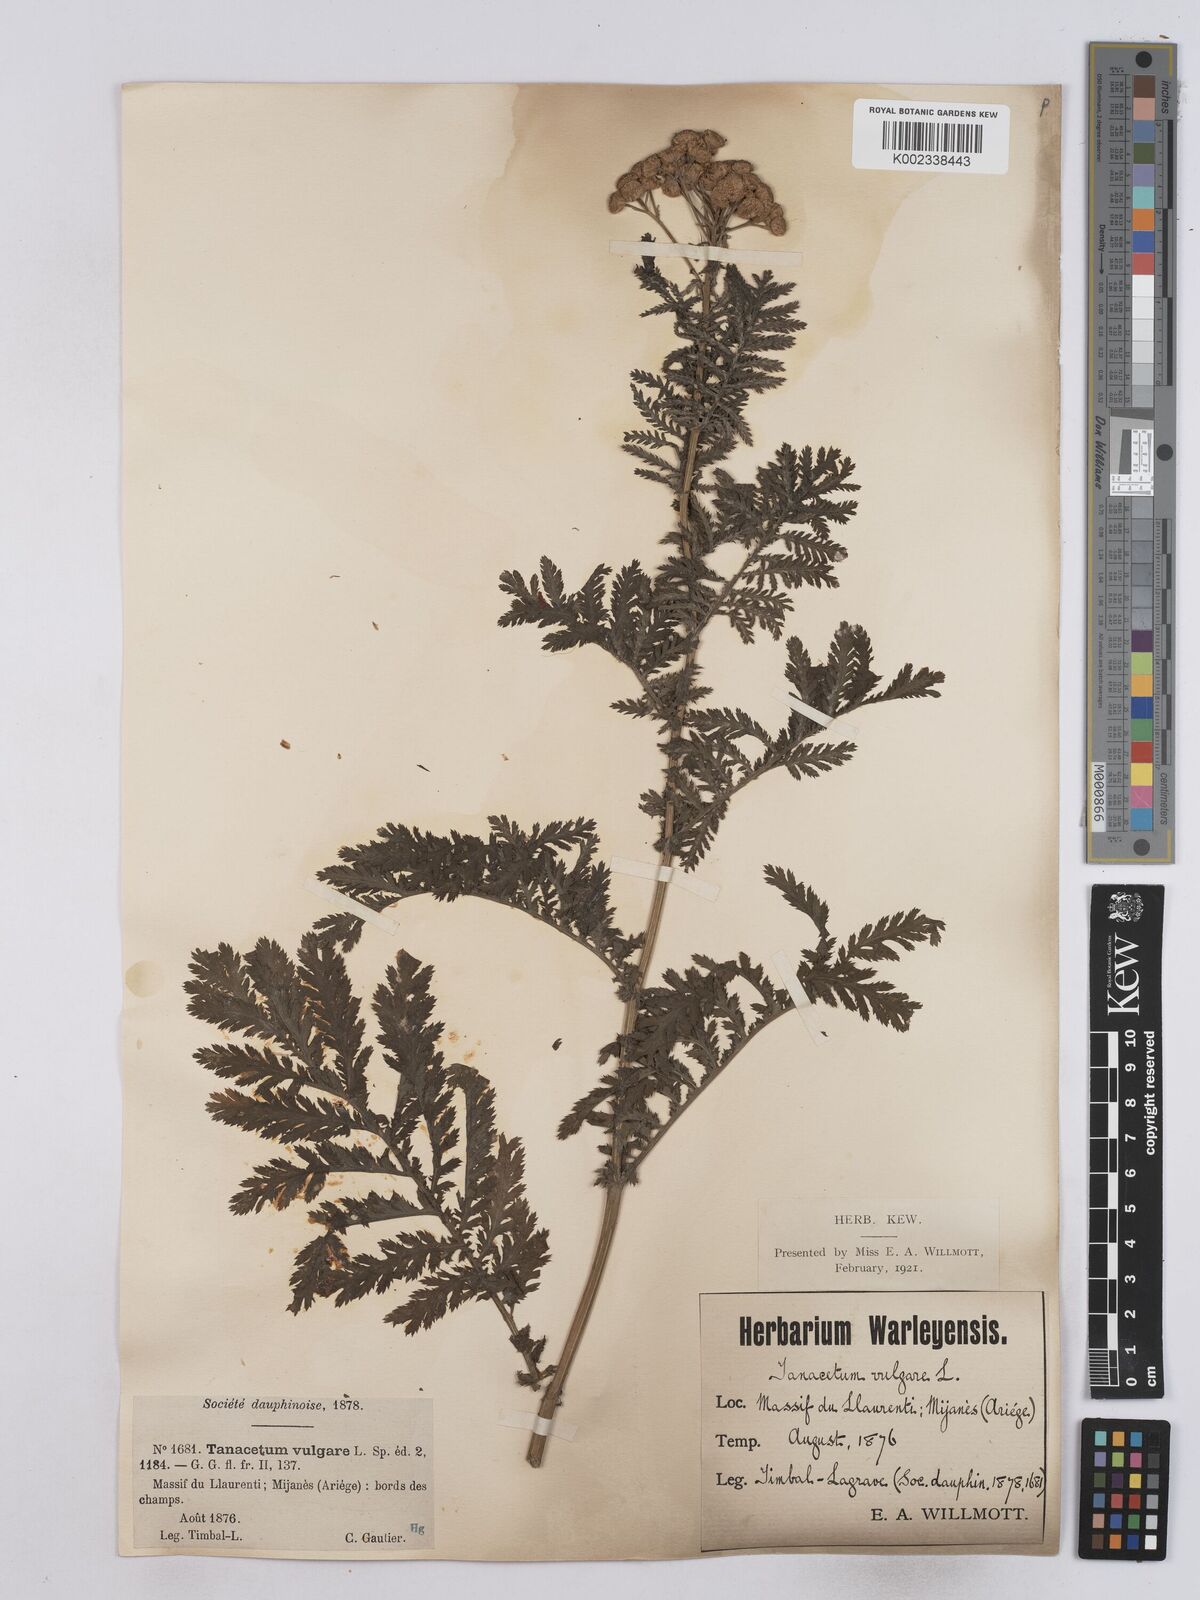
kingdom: Plantae
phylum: Tracheophyta
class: Magnoliopsida
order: Asterales
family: Asteraceae
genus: Tanacetum
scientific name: Tanacetum vulgare
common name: Common tansy
